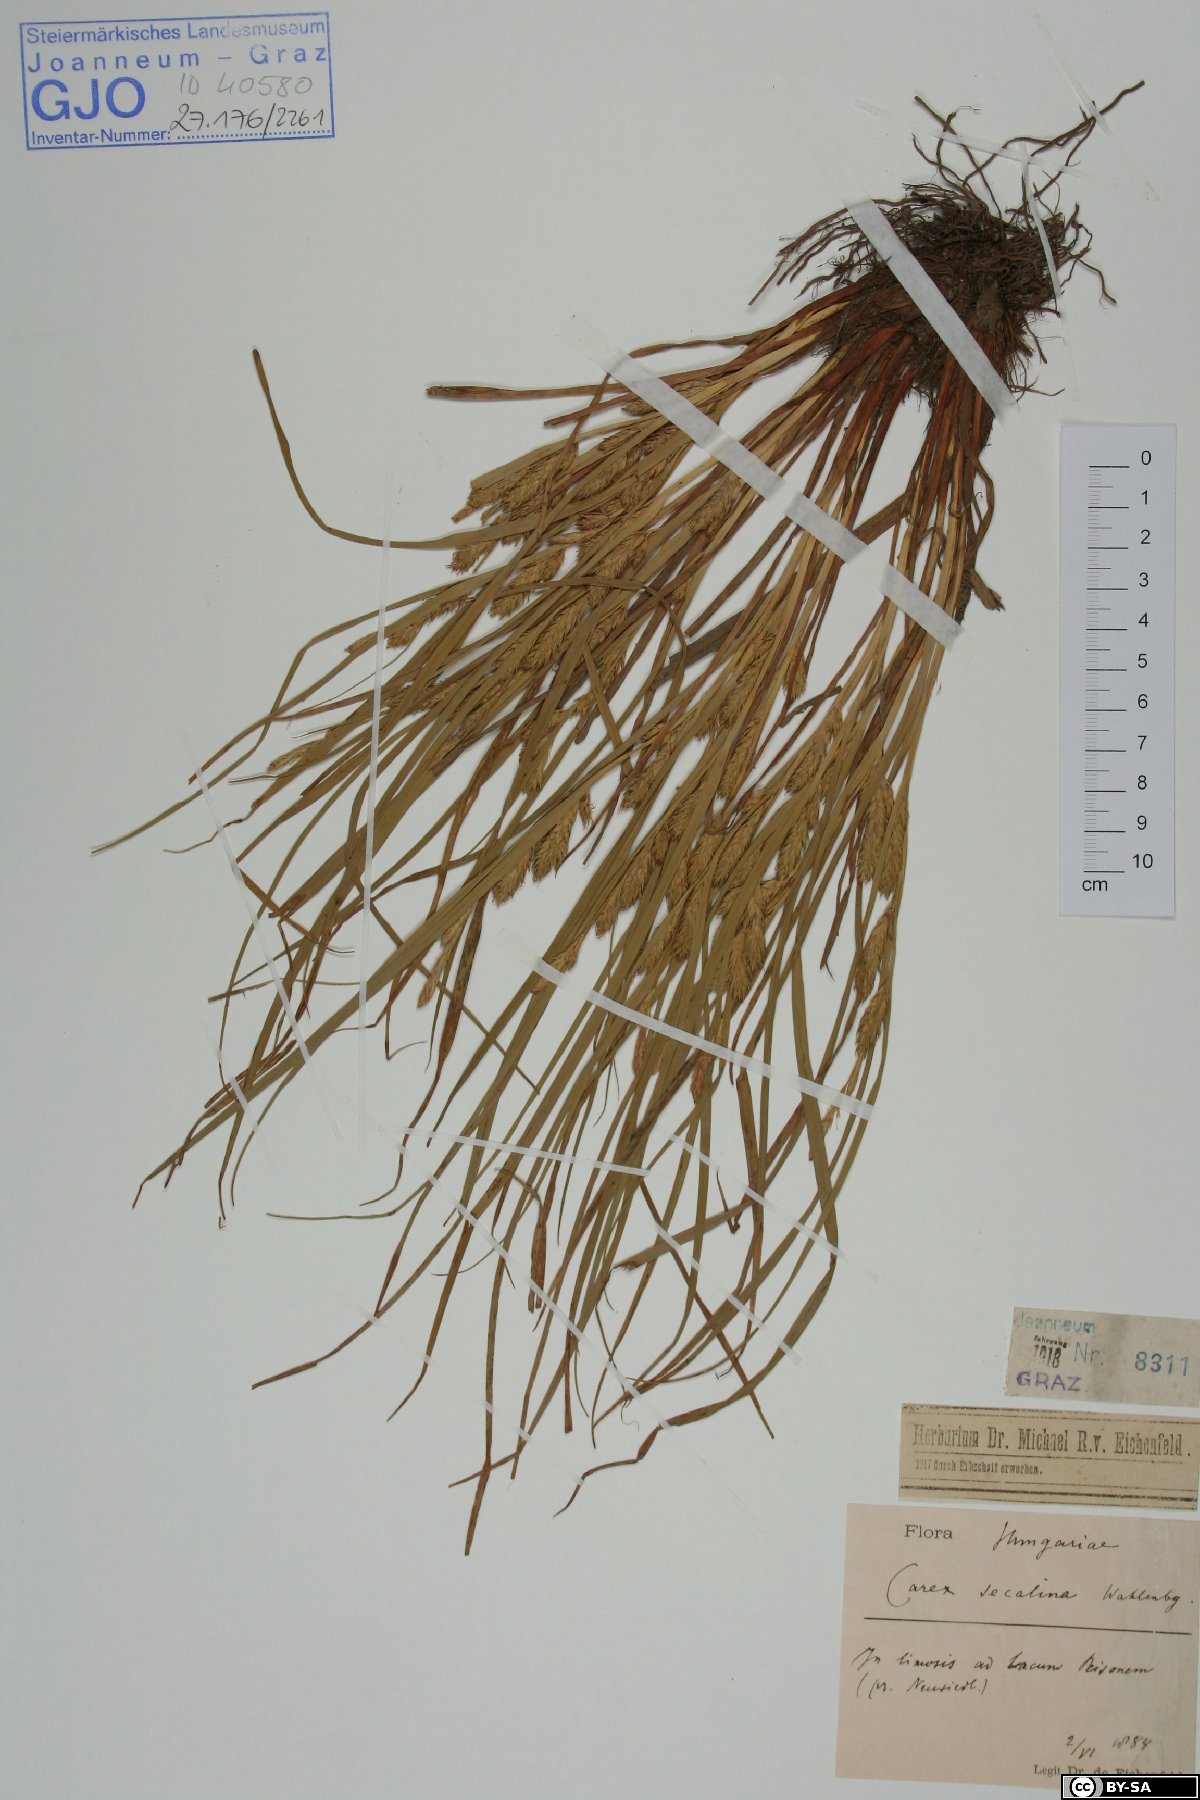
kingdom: Plantae
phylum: Tracheophyta
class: Liliopsida
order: Poales
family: Cyperaceae
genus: Carex
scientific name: Carex secalina
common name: Rye sedge
